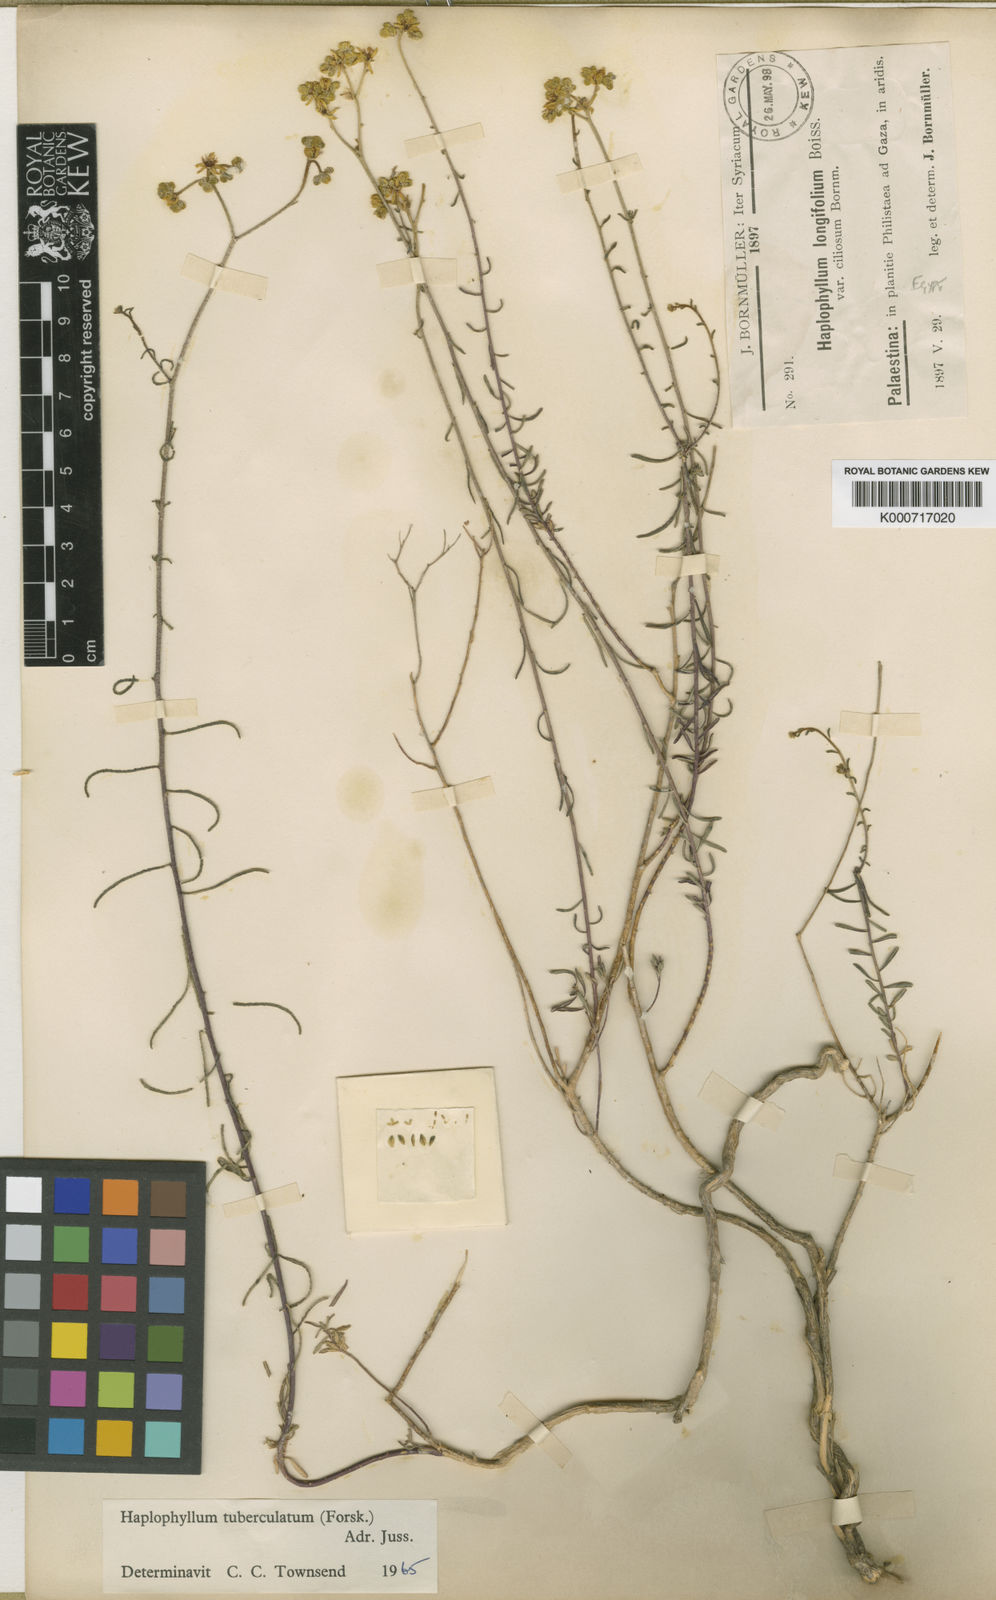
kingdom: Plantae
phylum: Tracheophyta
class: Magnoliopsida
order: Sapindales
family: Rutaceae
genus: Haplophyllum
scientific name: Haplophyllum tuberculatum
